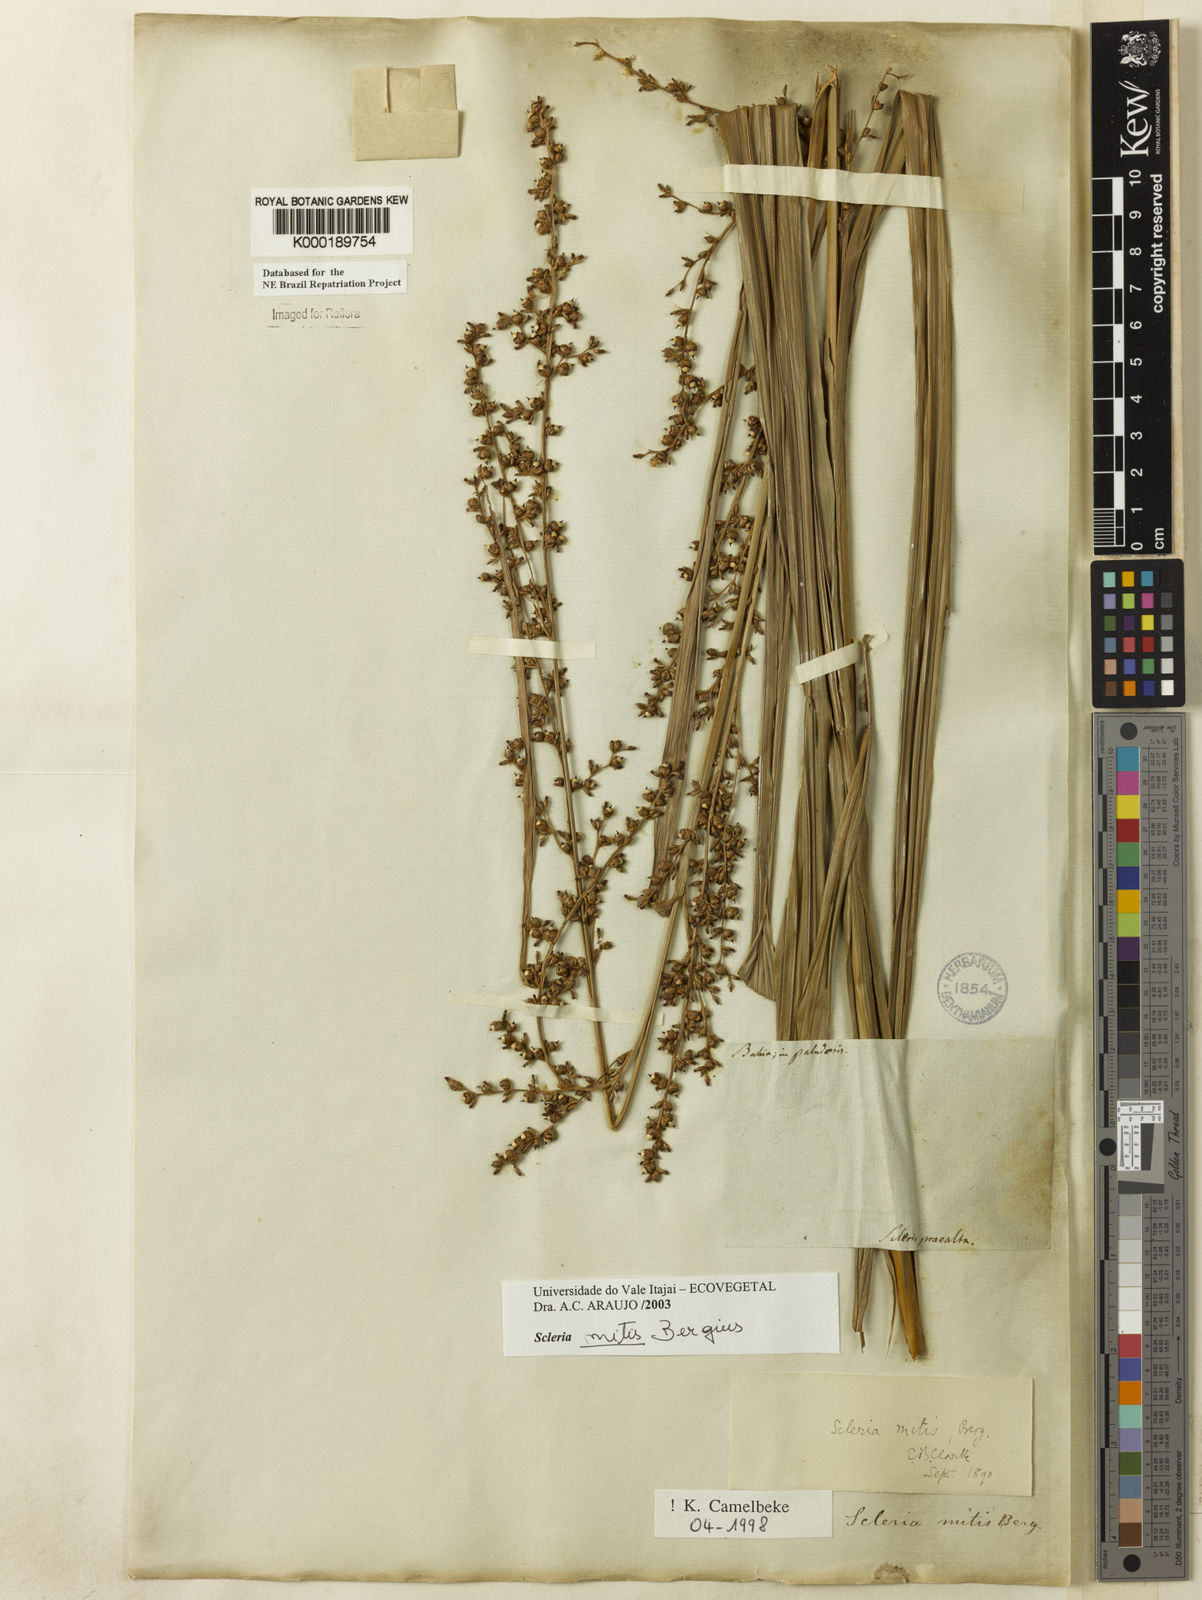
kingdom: Plantae
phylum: Tracheophyta
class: Liliopsida
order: Poales
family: Cyperaceae
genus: Scleria
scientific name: Scleria mitis
